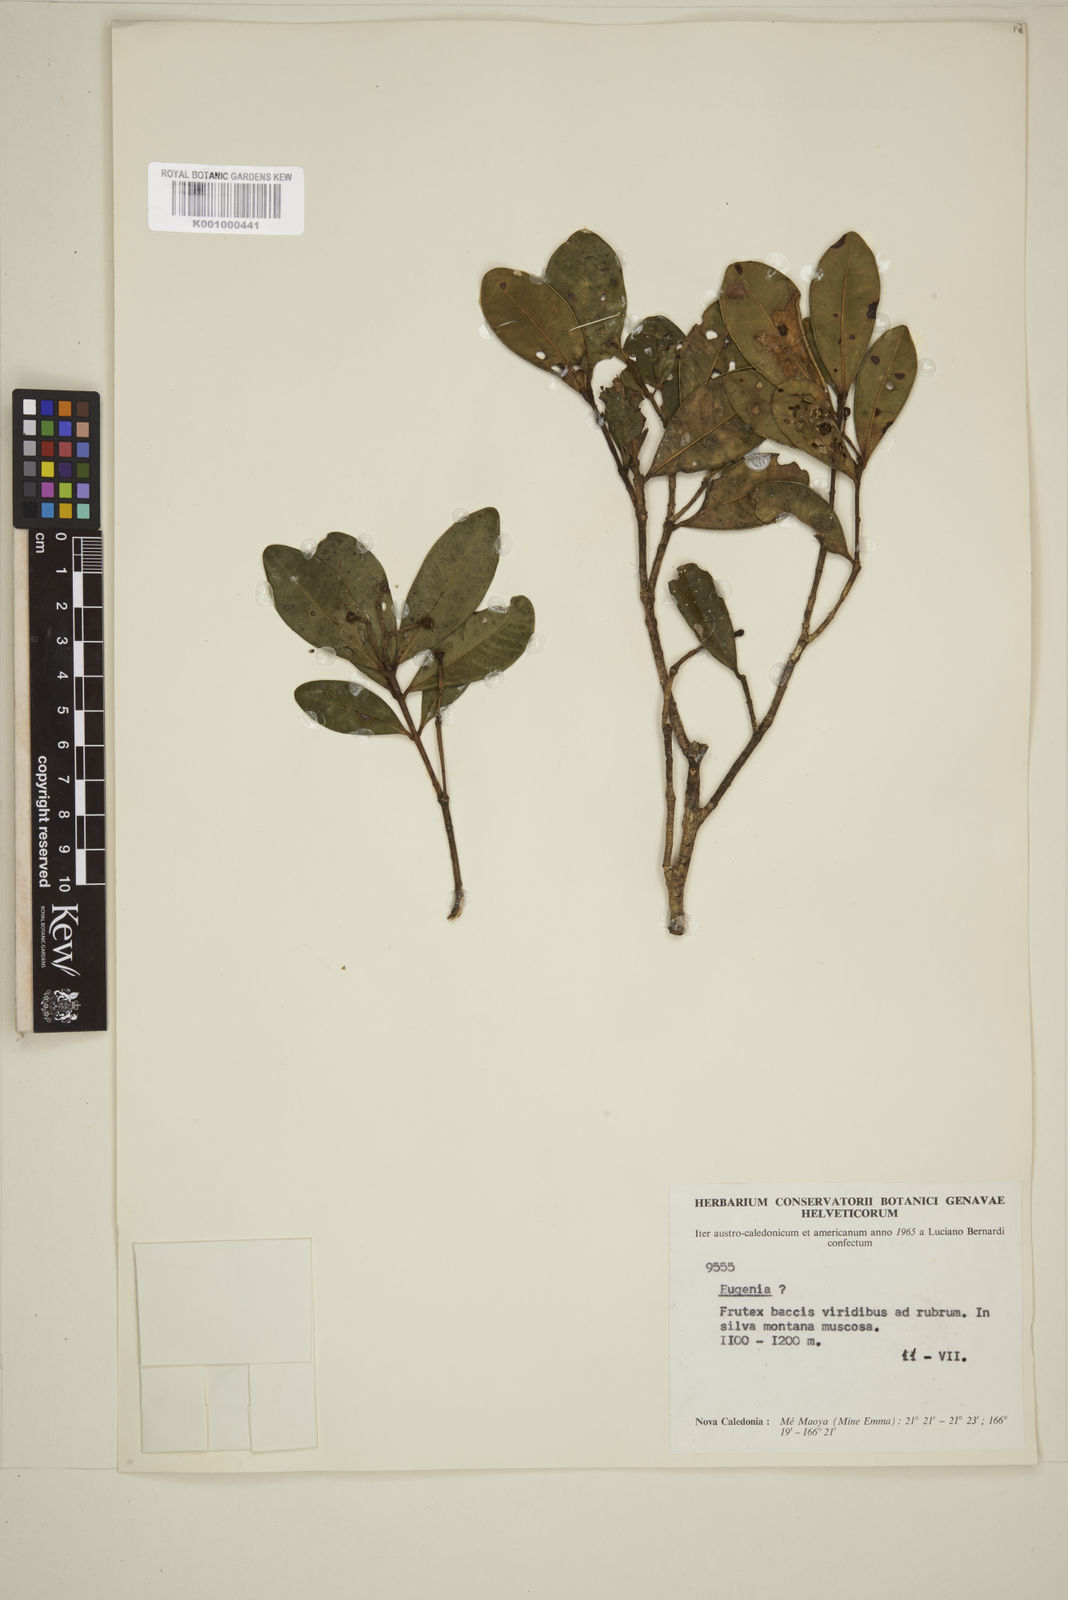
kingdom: Plantae
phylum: Tracheophyta
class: Magnoliopsida
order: Myrtales
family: Myrtaceae
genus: Eugenia
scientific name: Eugenia
